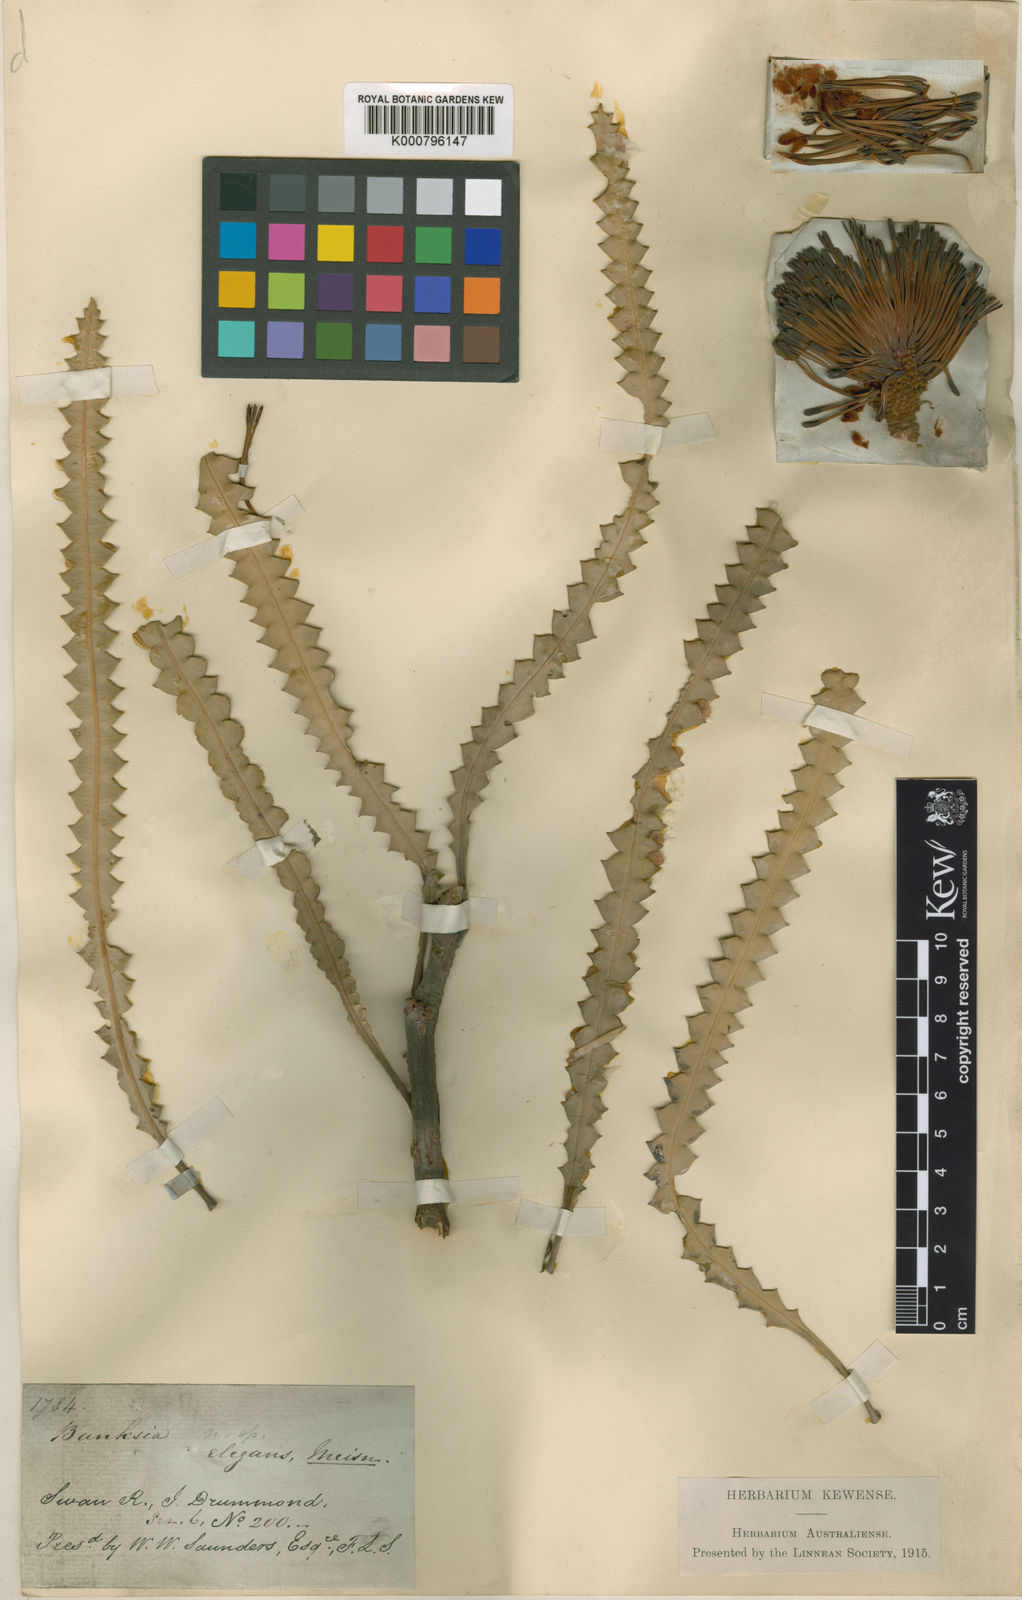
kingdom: Plantae
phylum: Tracheophyta
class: Magnoliopsida
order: Proteales
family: Proteaceae
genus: Banksia
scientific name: Banksia elegans
